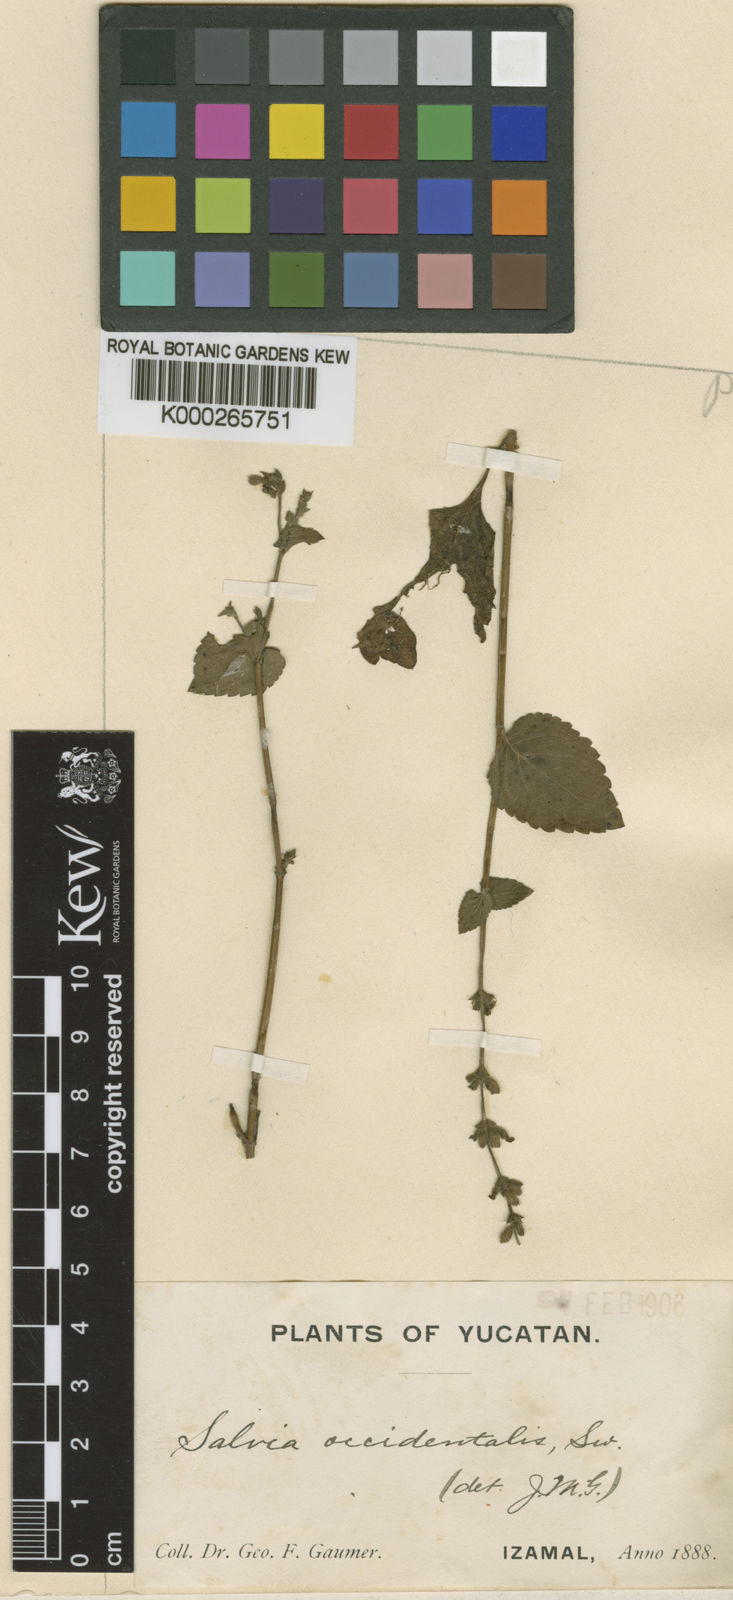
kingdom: Plantae
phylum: Tracheophyta
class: Magnoliopsida
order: Lamiales
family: Lamiaceae
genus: Salvia
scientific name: Salvia occidentalis
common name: West indian sage
